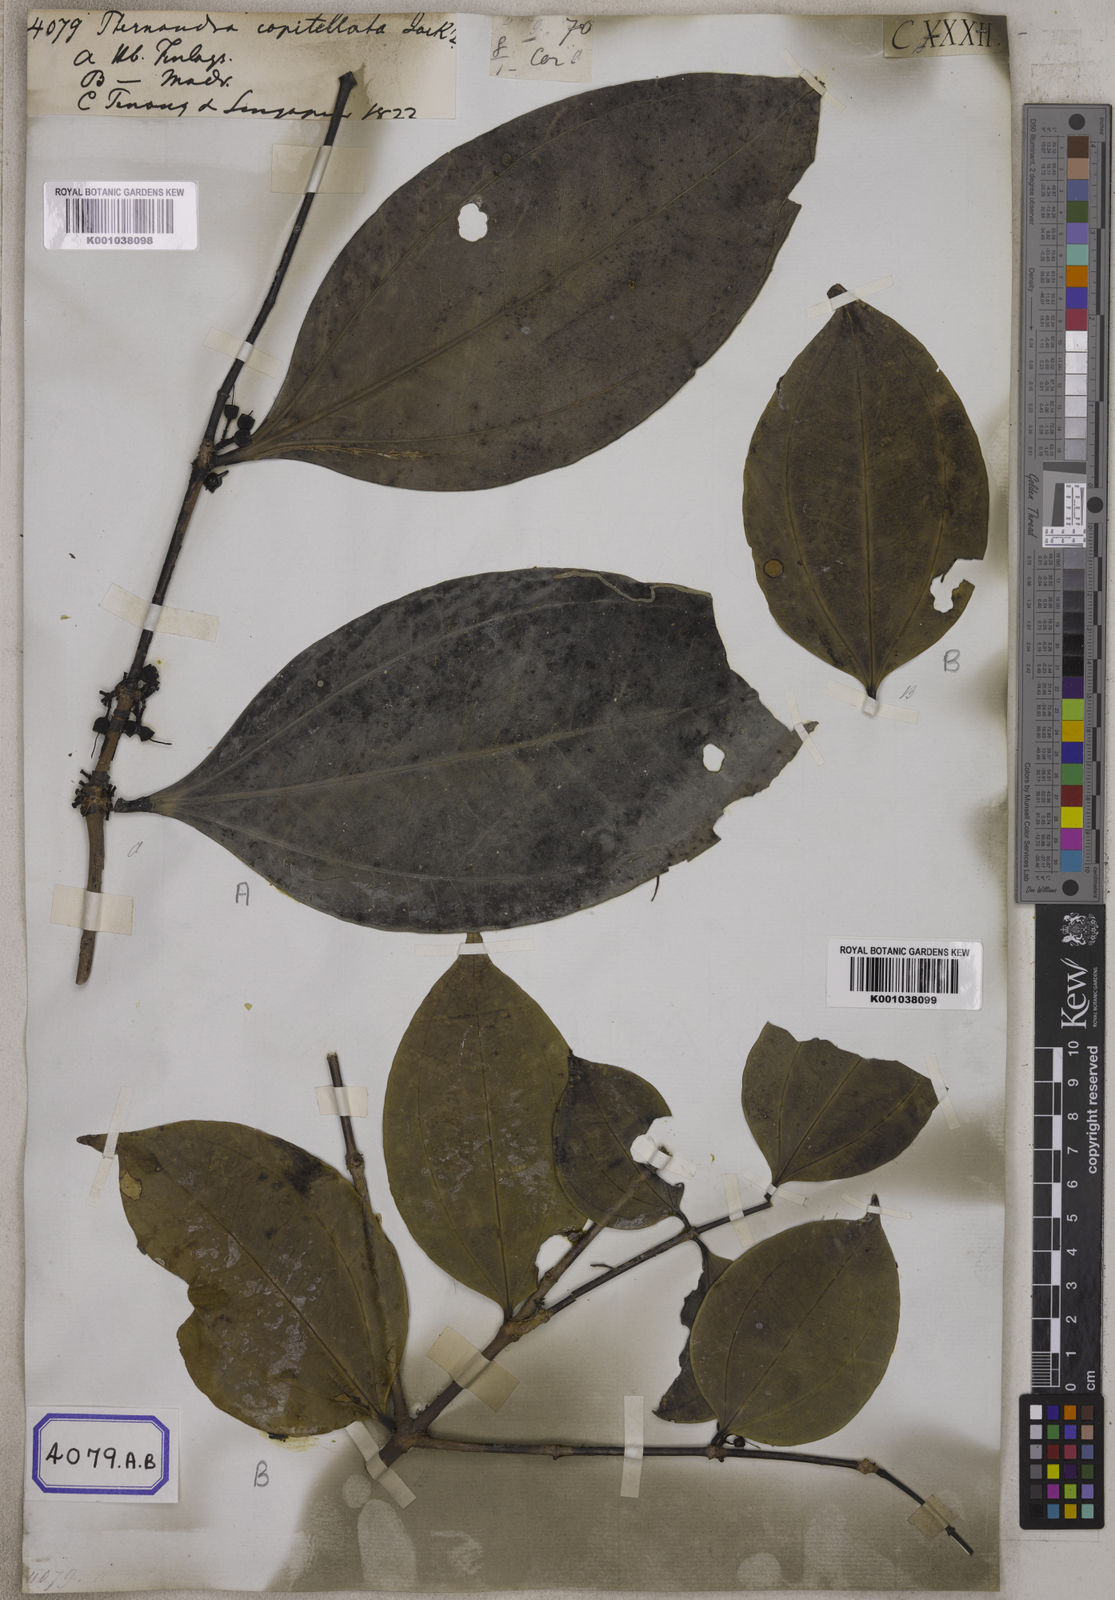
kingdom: Plantae
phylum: Tracheophyta
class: Magnoliopsida
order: Myrtales
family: Melastomataceae
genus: Pternandra
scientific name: Pternandra coerulescens
